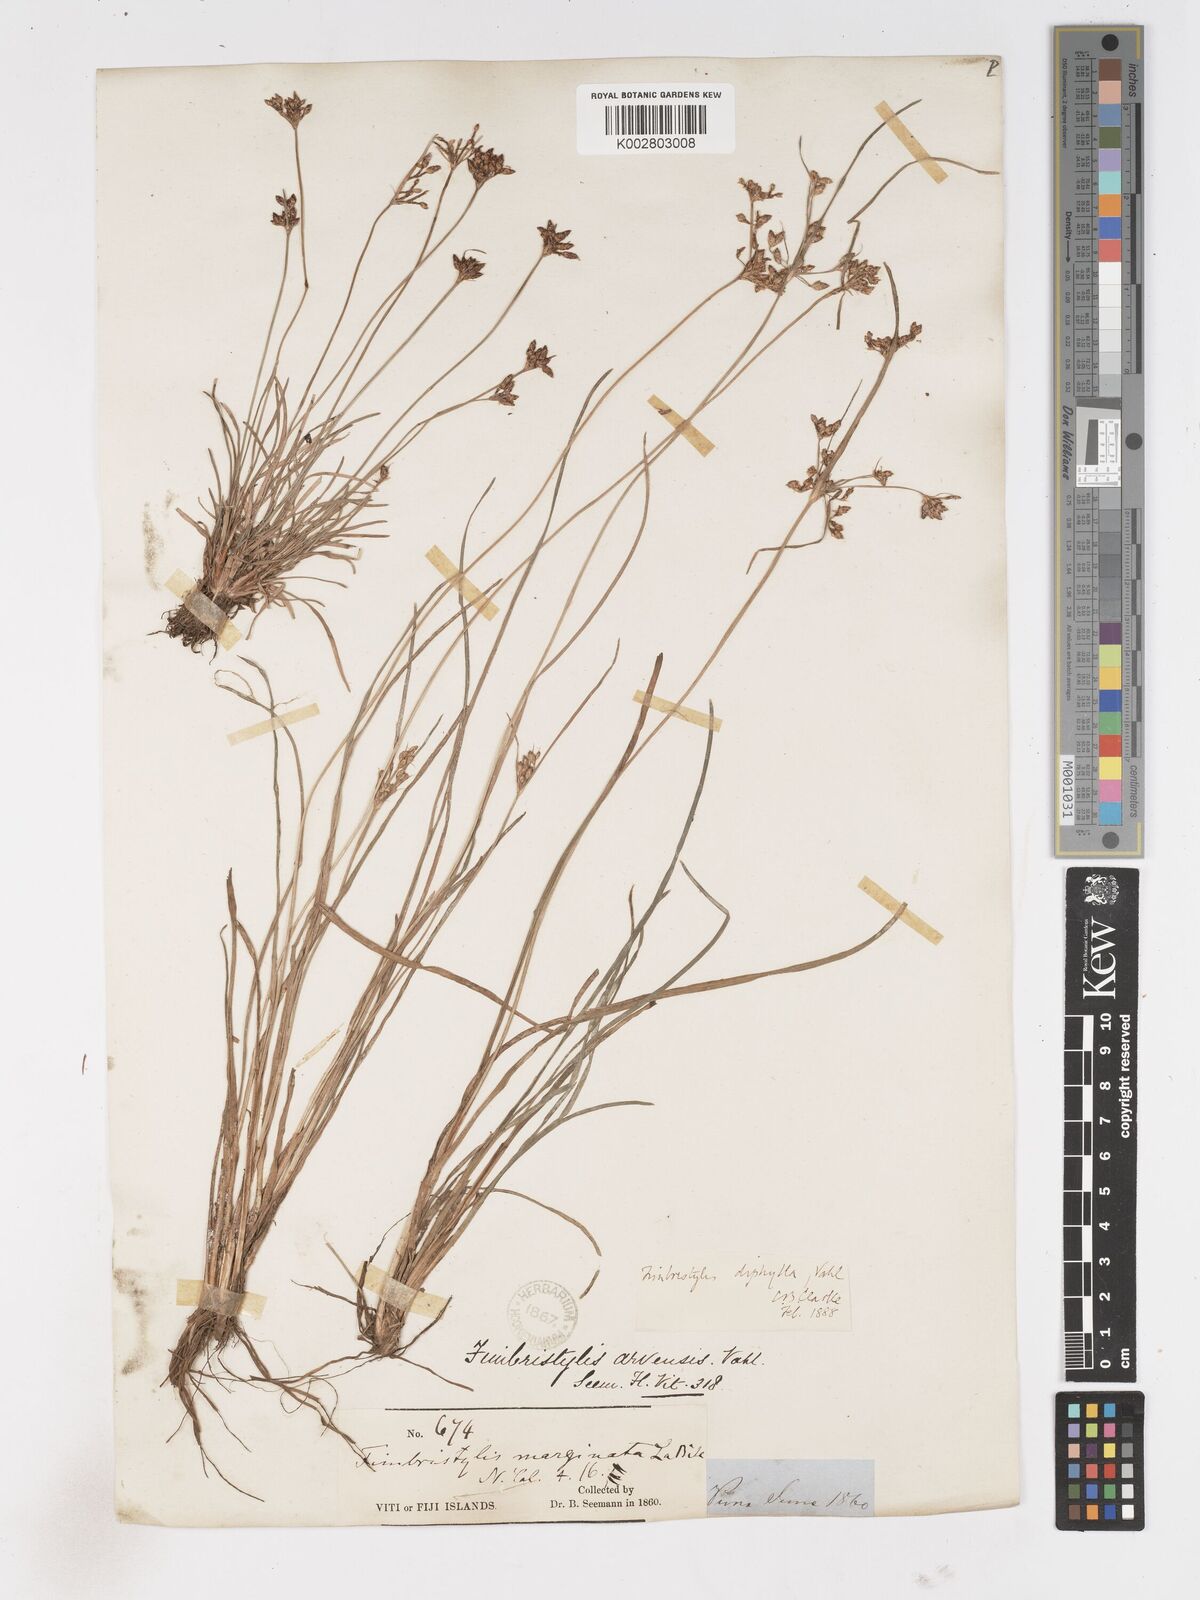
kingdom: Plantae
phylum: Tracheophyta
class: Liliopsida
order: Poales
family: Cyperaceae
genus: Fimbristylis
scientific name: Fimbristylis dichotoma
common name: Forked fimbry
